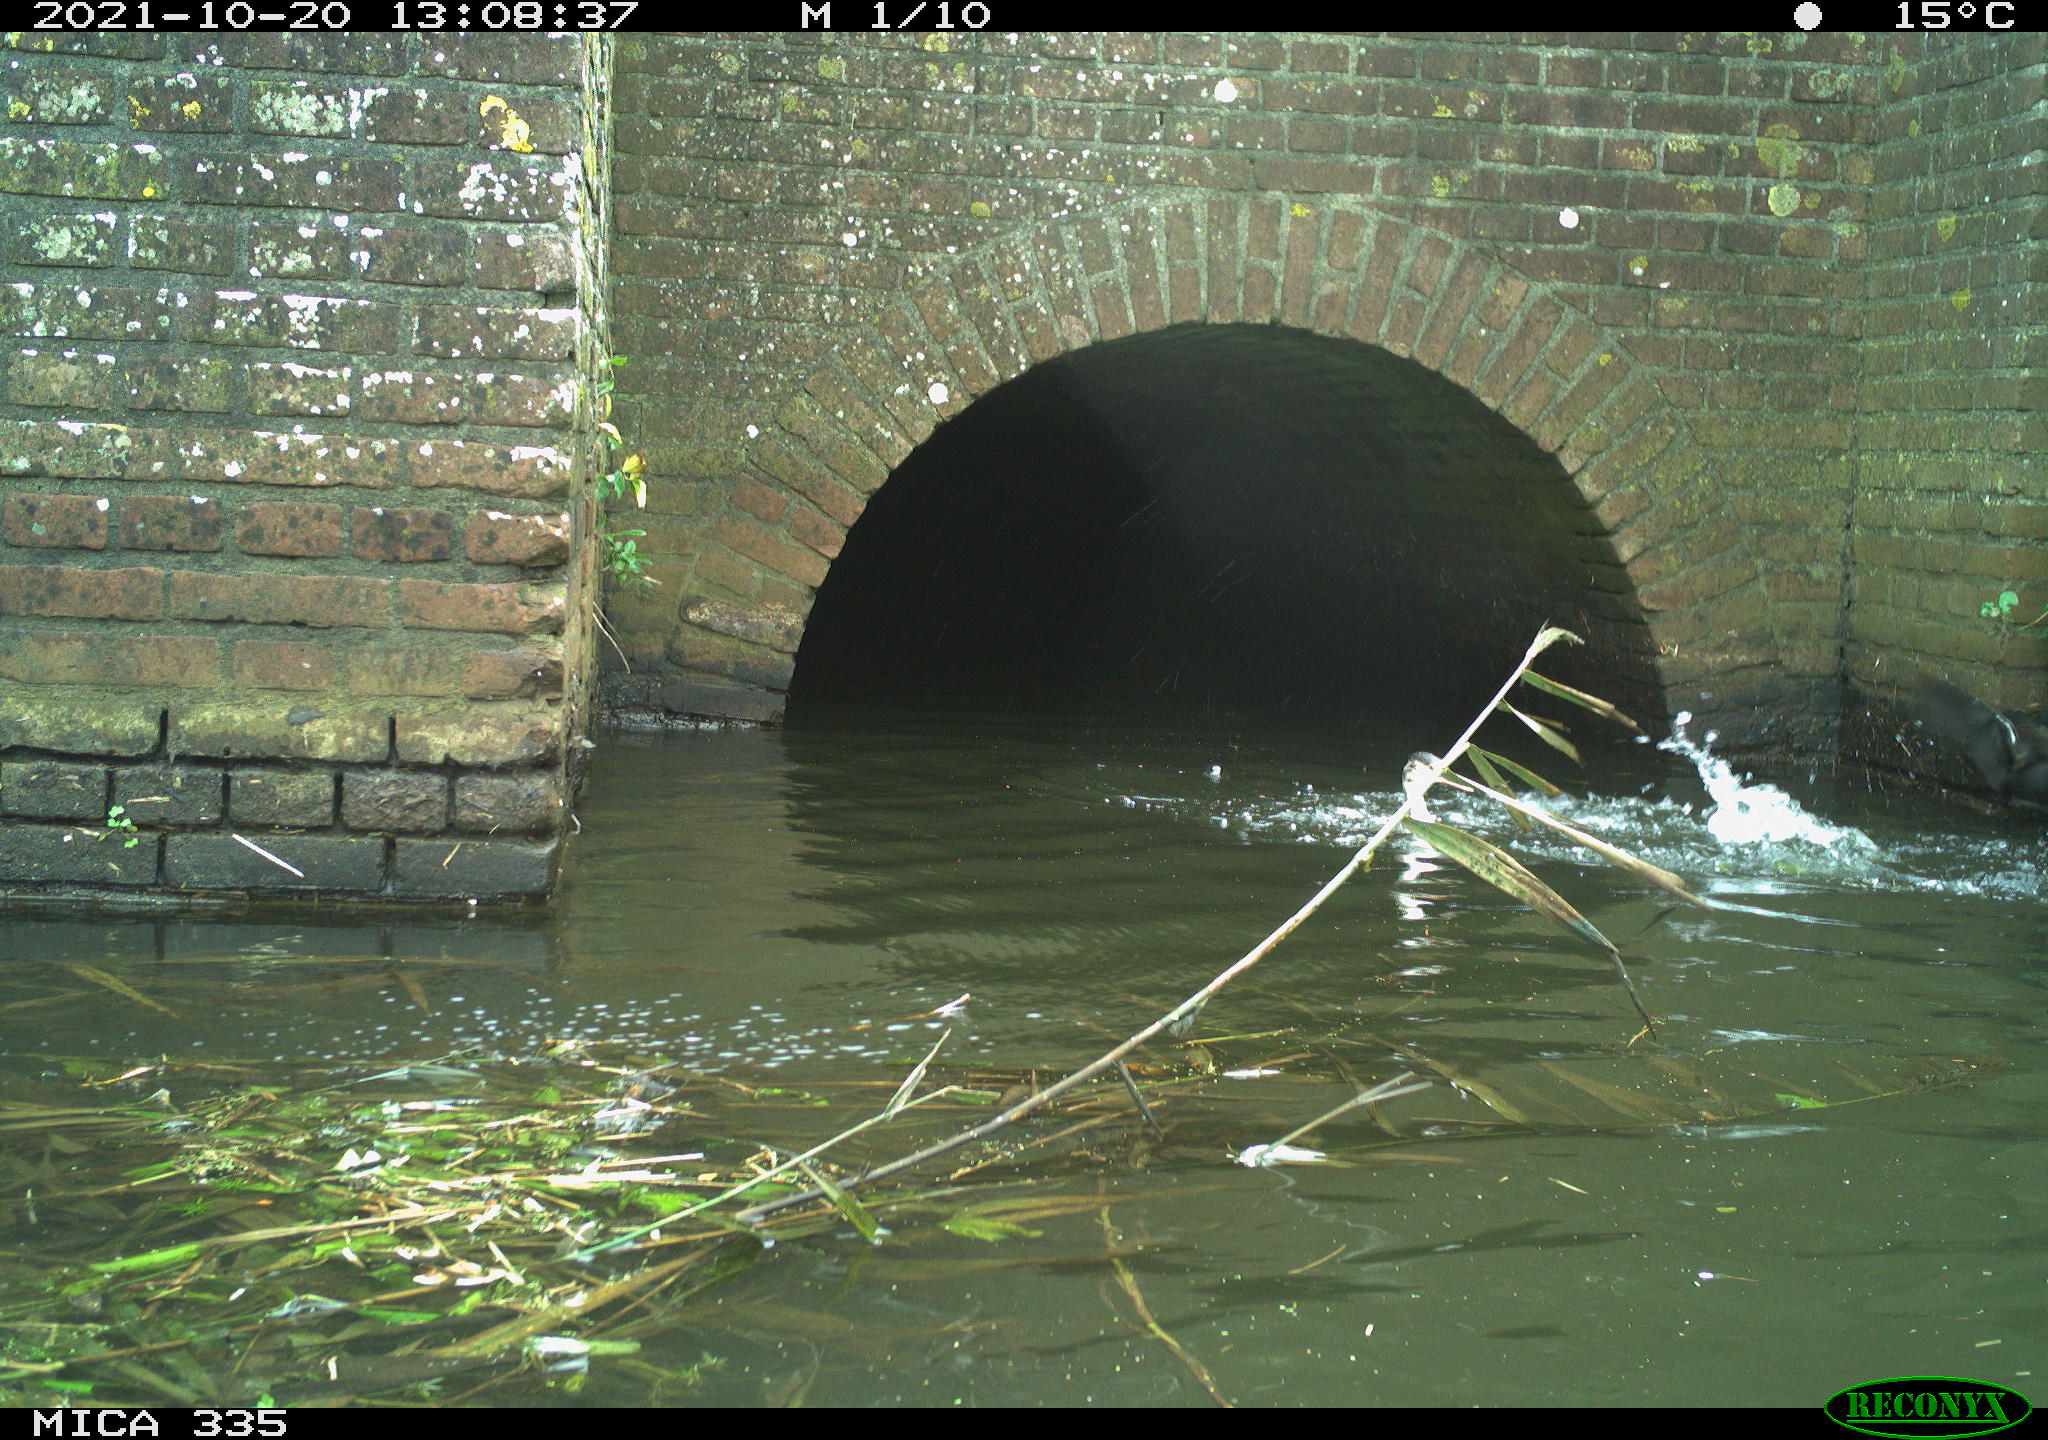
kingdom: Animalia
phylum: Chordata
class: Aves
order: Podicipediformes
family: Podicipedidae
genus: Podiceps
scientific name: Podiceps cristatus
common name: Great crested grebe
